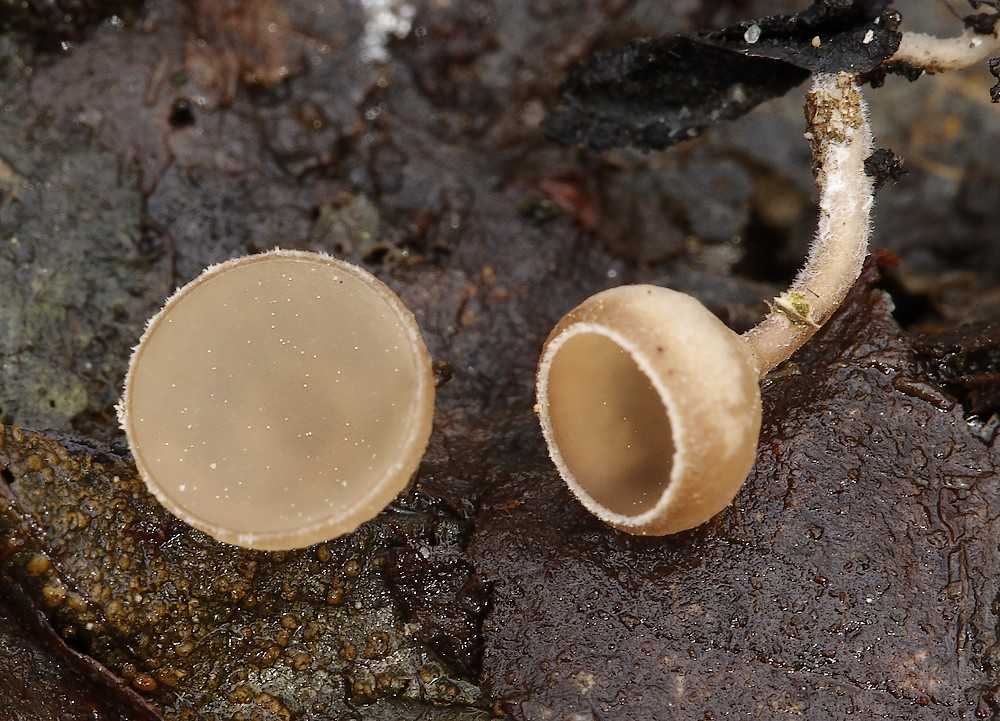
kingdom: Fungi
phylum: Ascomycota
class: Leotiomycetes
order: Helotiales
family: Sclerotiniaceae
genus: Ciboria
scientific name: Ciboria amentacea
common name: ellerakle-knoldskive
